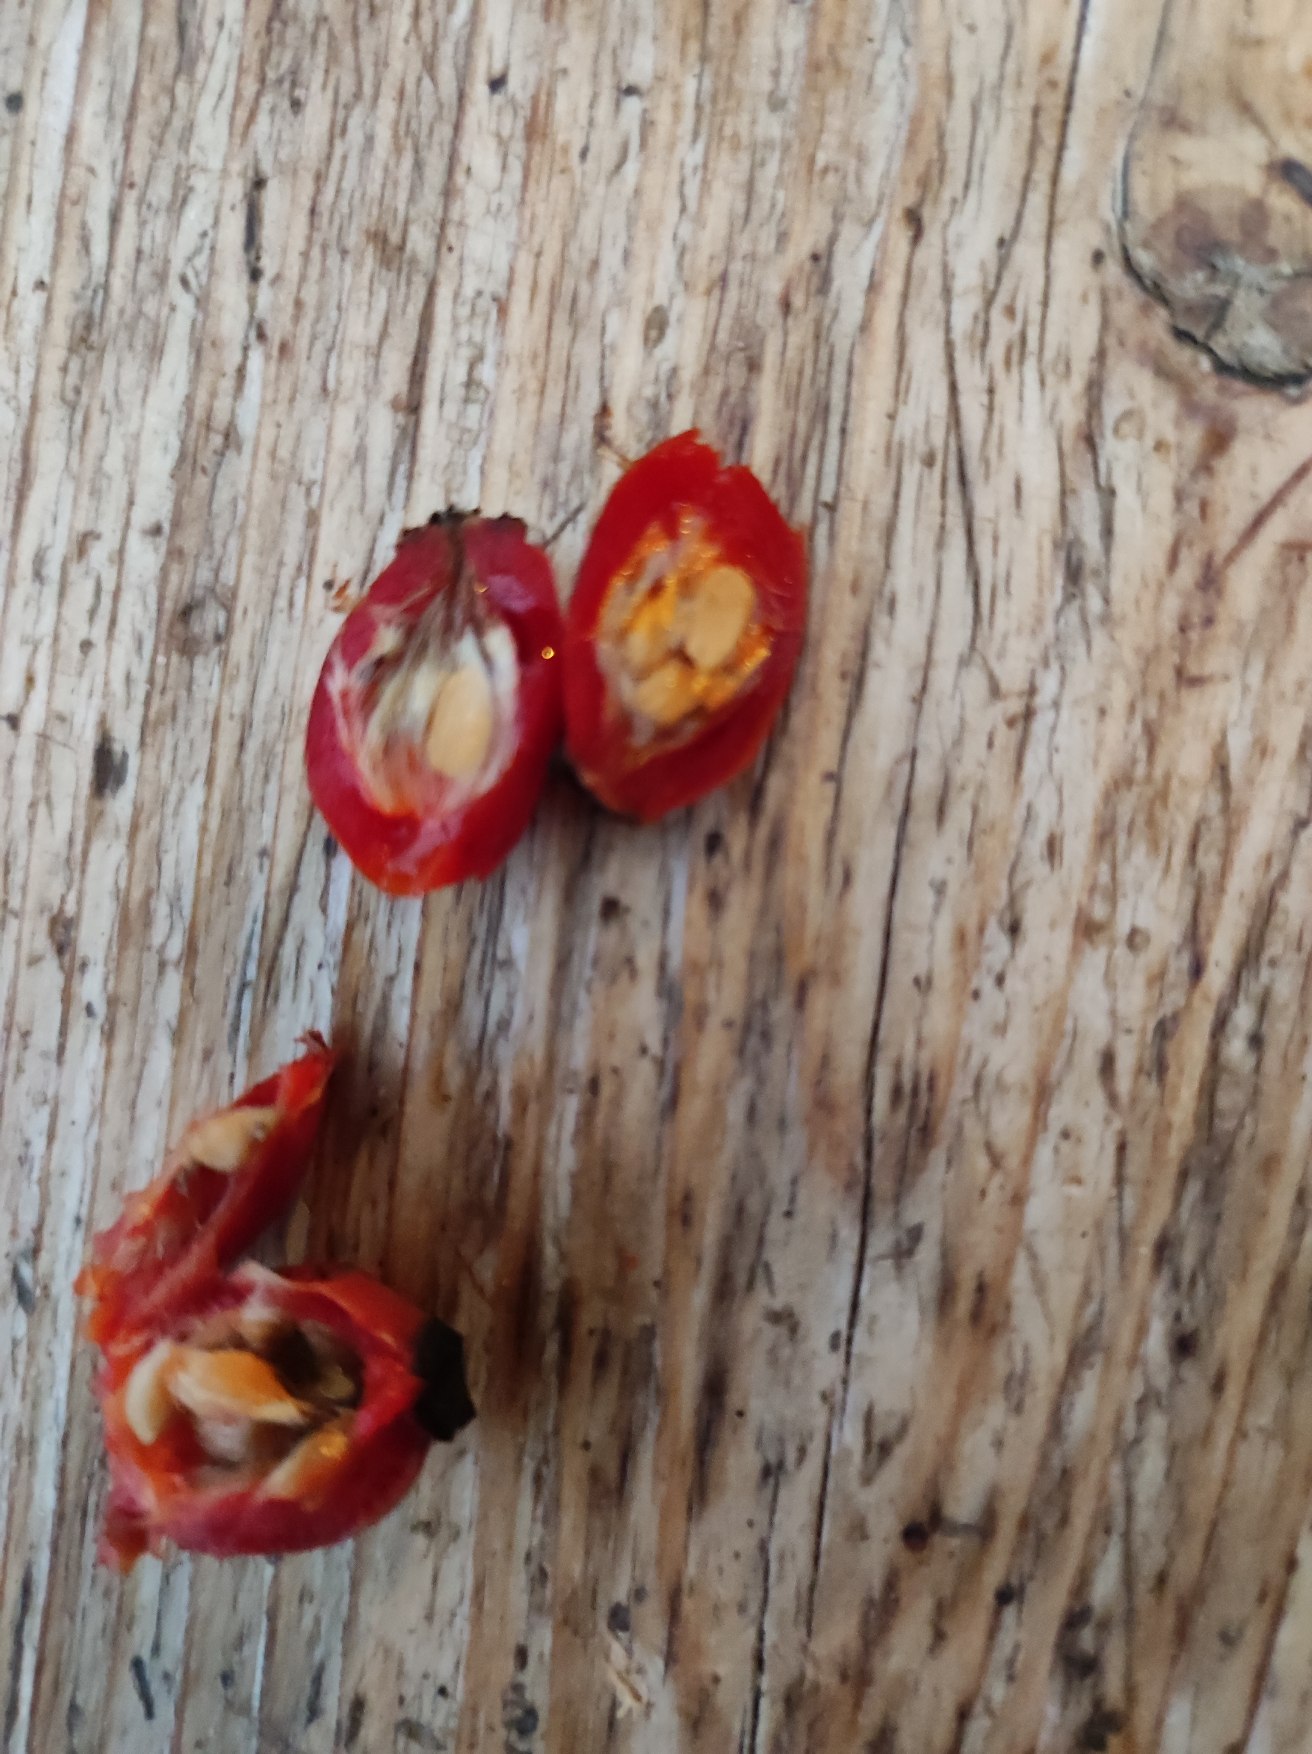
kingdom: Plantae
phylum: Tracheophyta
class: Magnoliopsida
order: Rosales
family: Rosaceae
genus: Rosa
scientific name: Rosa canina
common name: Hunde-rose
